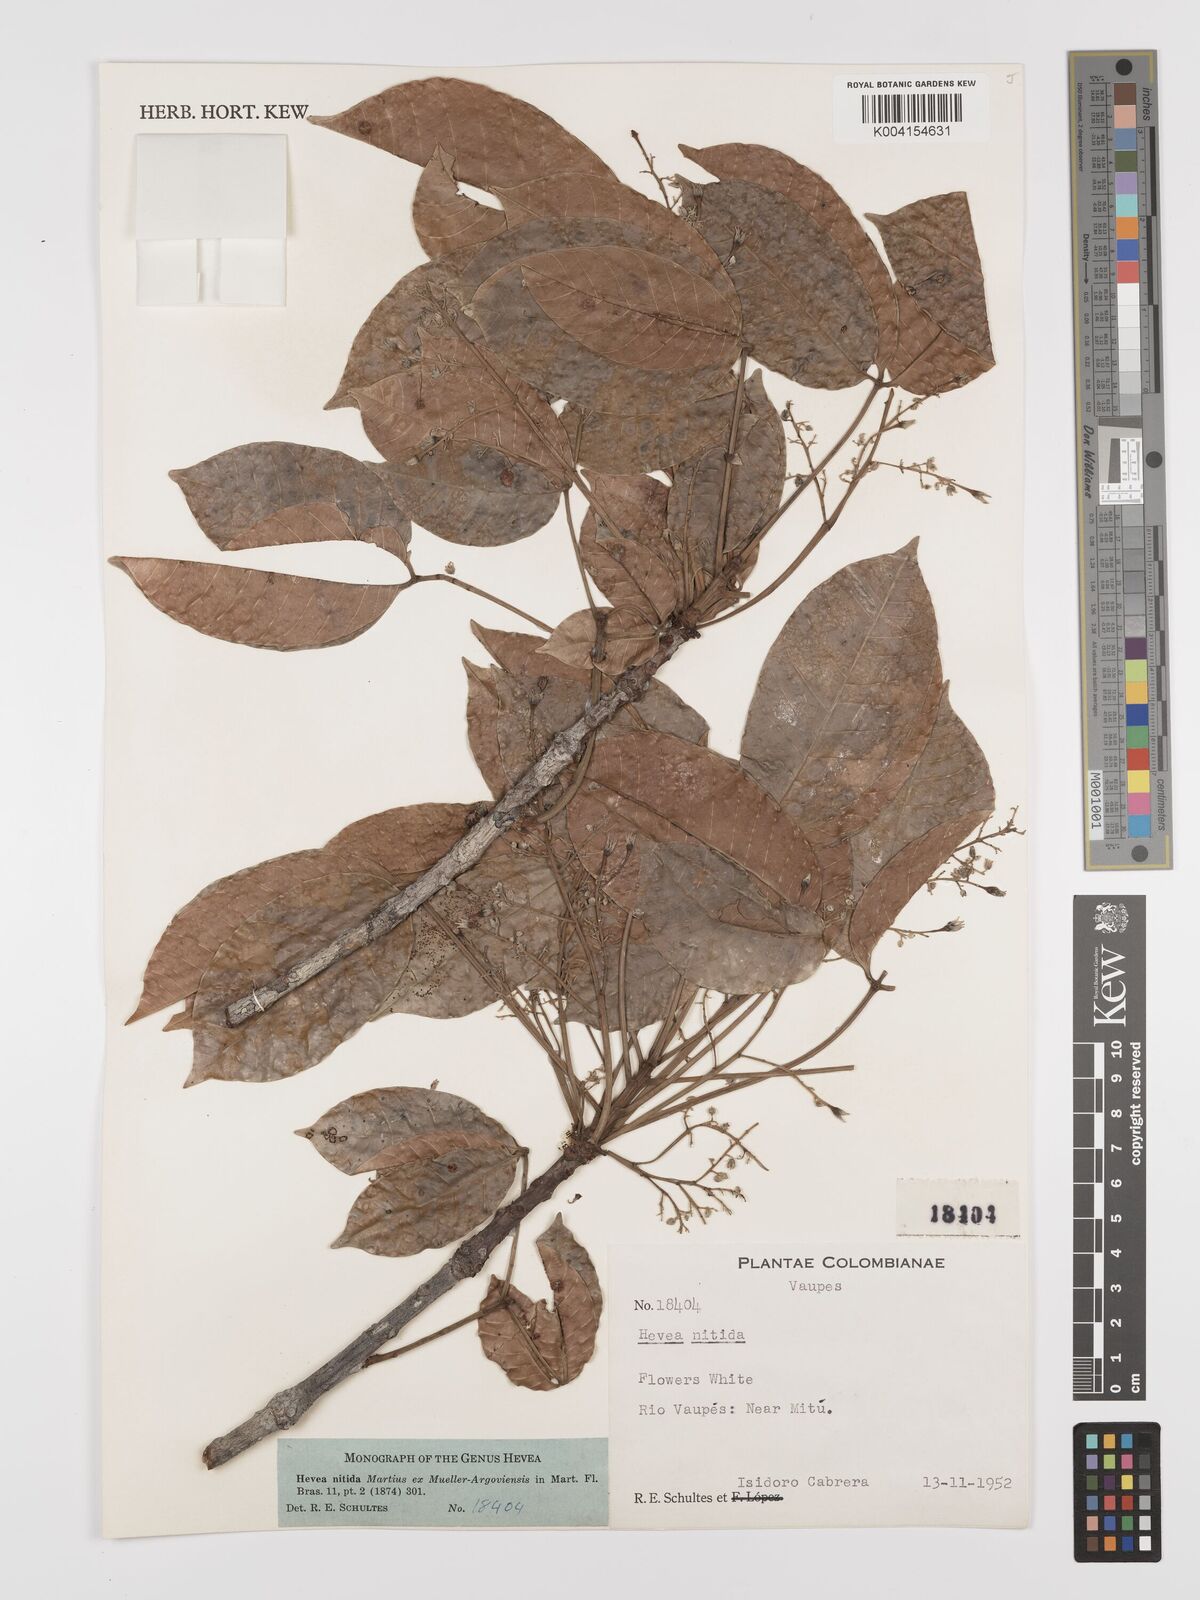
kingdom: Plantae
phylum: Tracheophyta
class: Magnoliopsida
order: Malpighiales
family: Euphorbiaceae
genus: Hevea
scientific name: Hevea nitida
